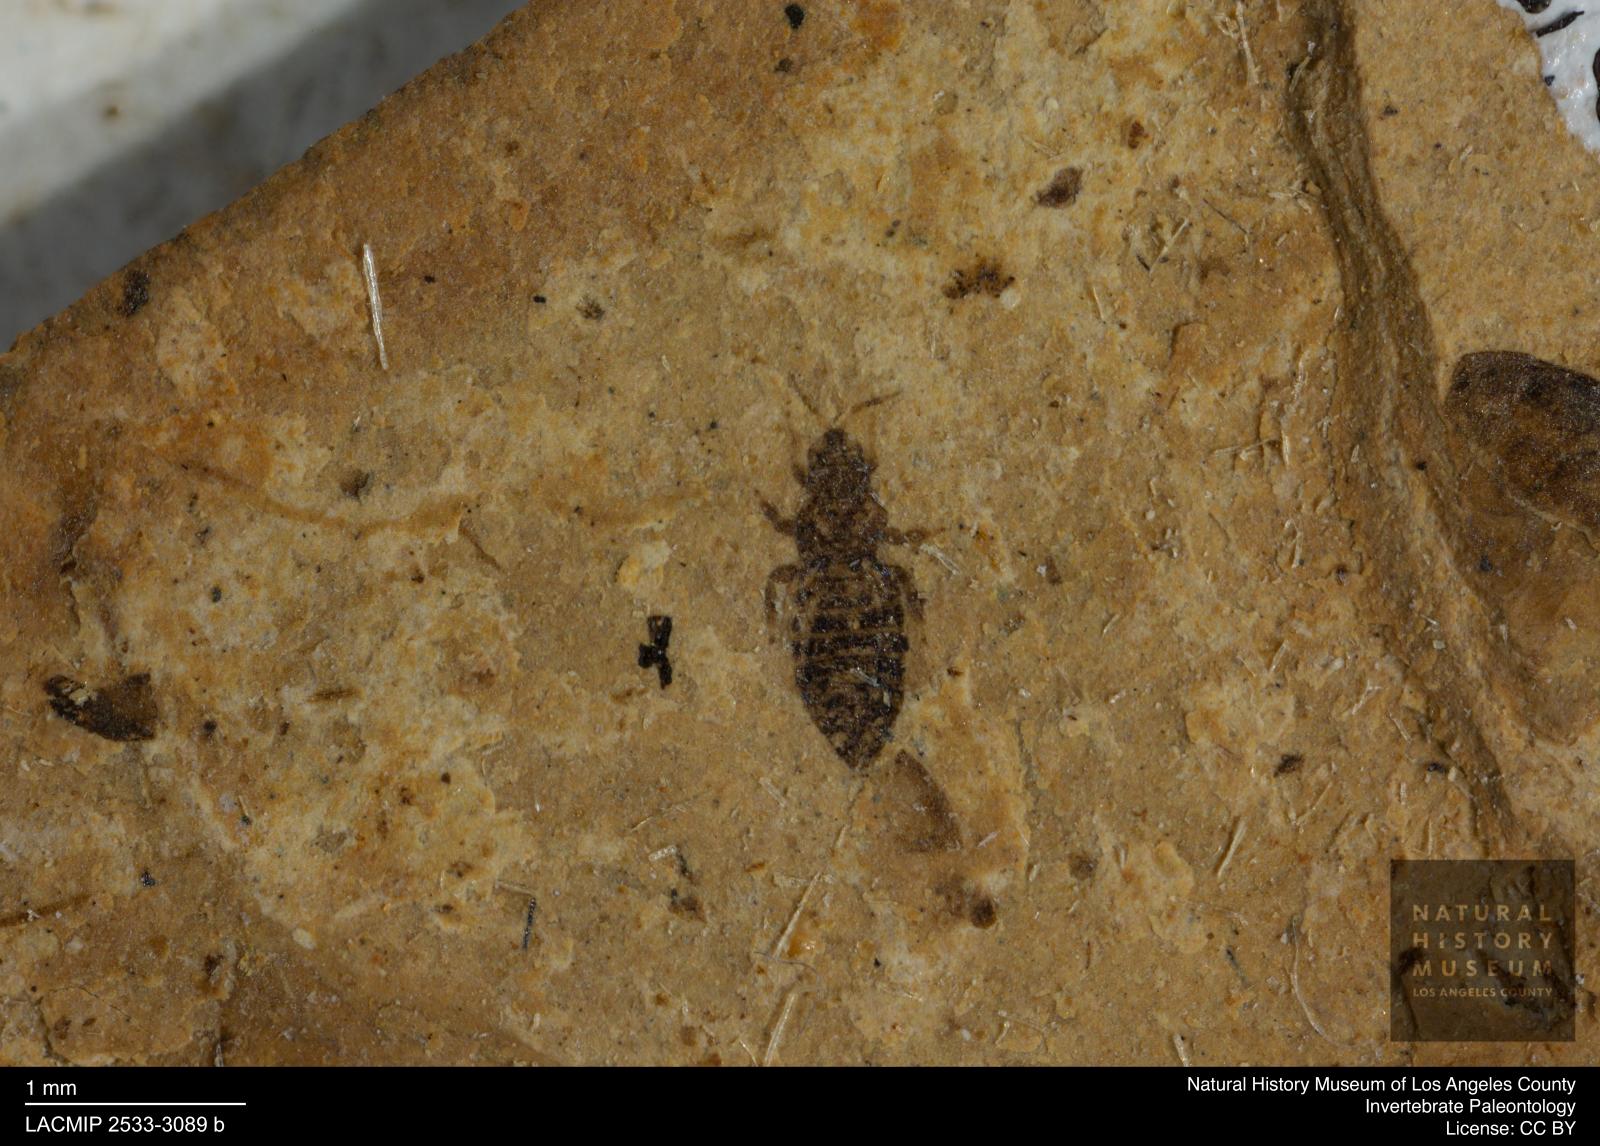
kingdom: Animalia
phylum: Arthropoda
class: Insecta
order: Thysanoptera
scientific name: Thysanoptera
